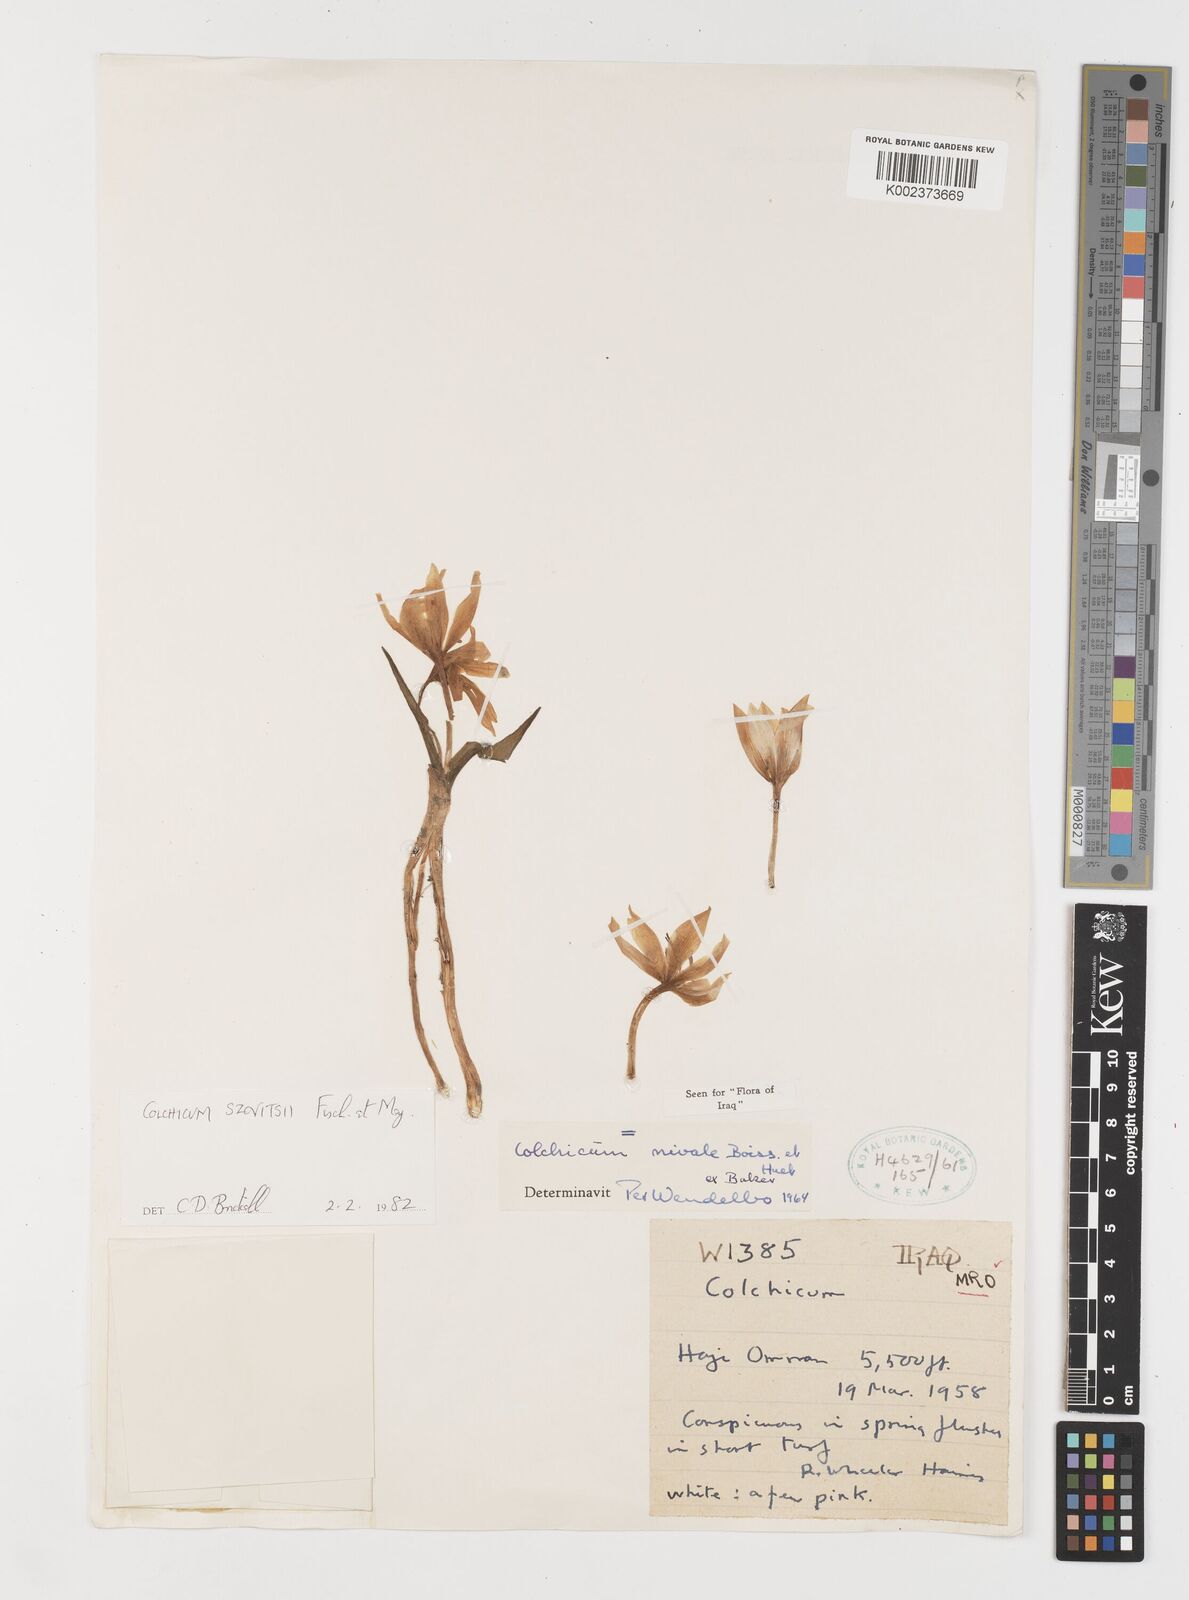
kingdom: Plantae
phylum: Tracheophyta
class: Liliopsida
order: Liliales
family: Colchicaceae
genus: Colchicum
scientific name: Colchicum szovitsii
